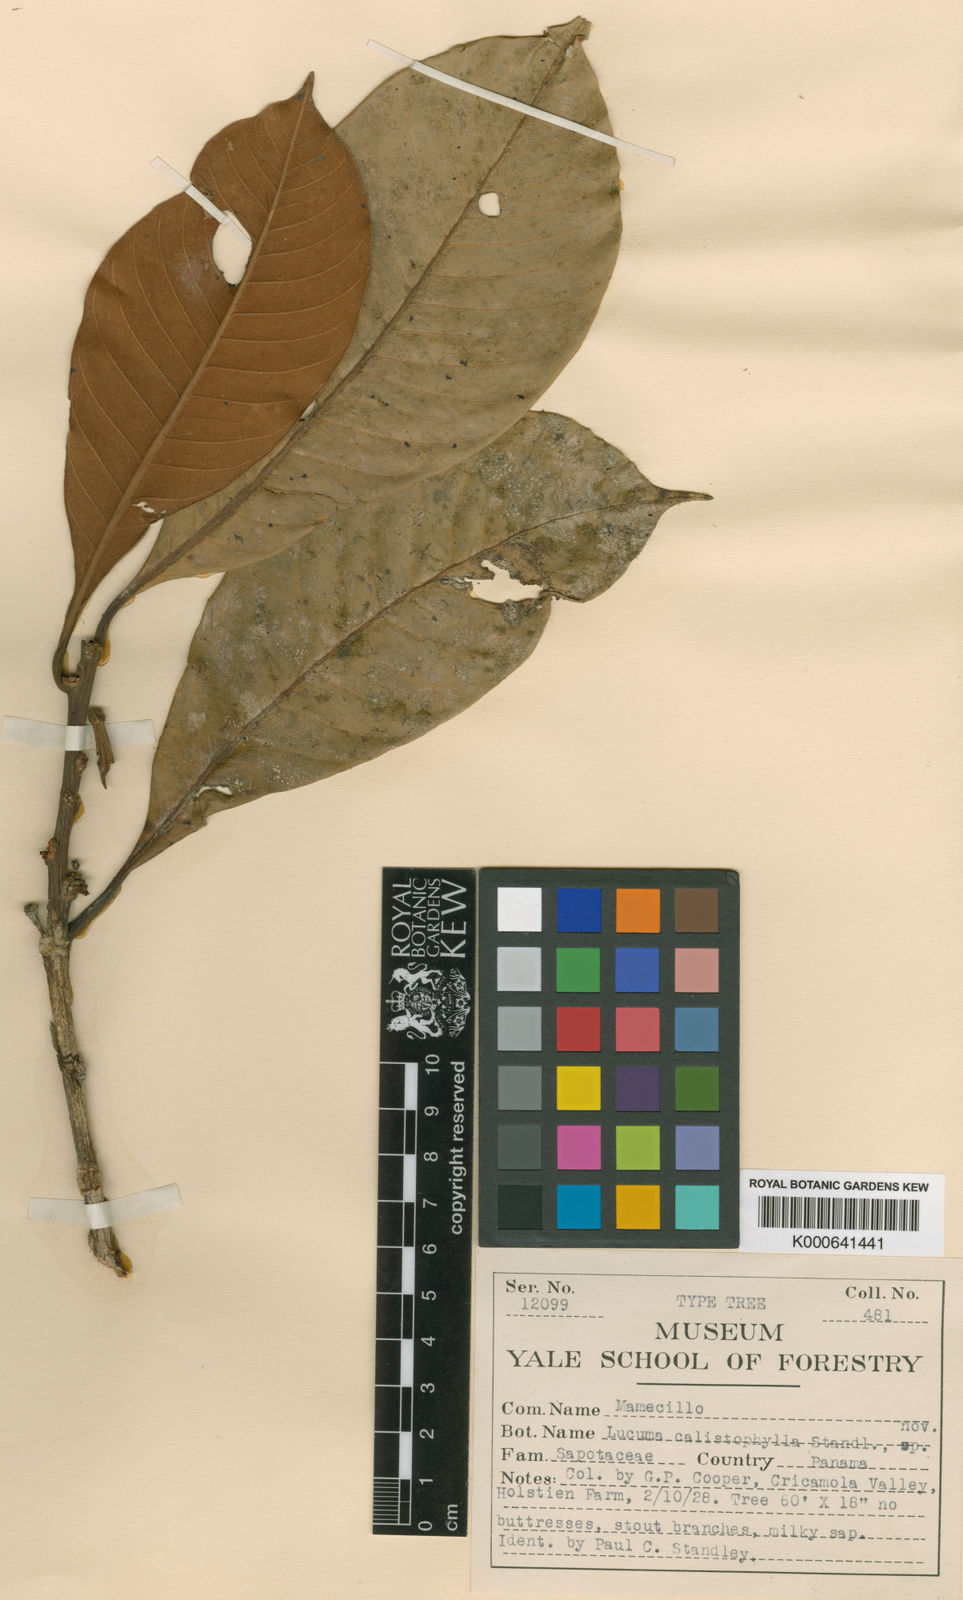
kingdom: Plantae
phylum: Tracheophyta
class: Magnoliopsida
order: Ericales
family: Sapotaceae
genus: Pouteria
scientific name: Pouteria calistophylla
